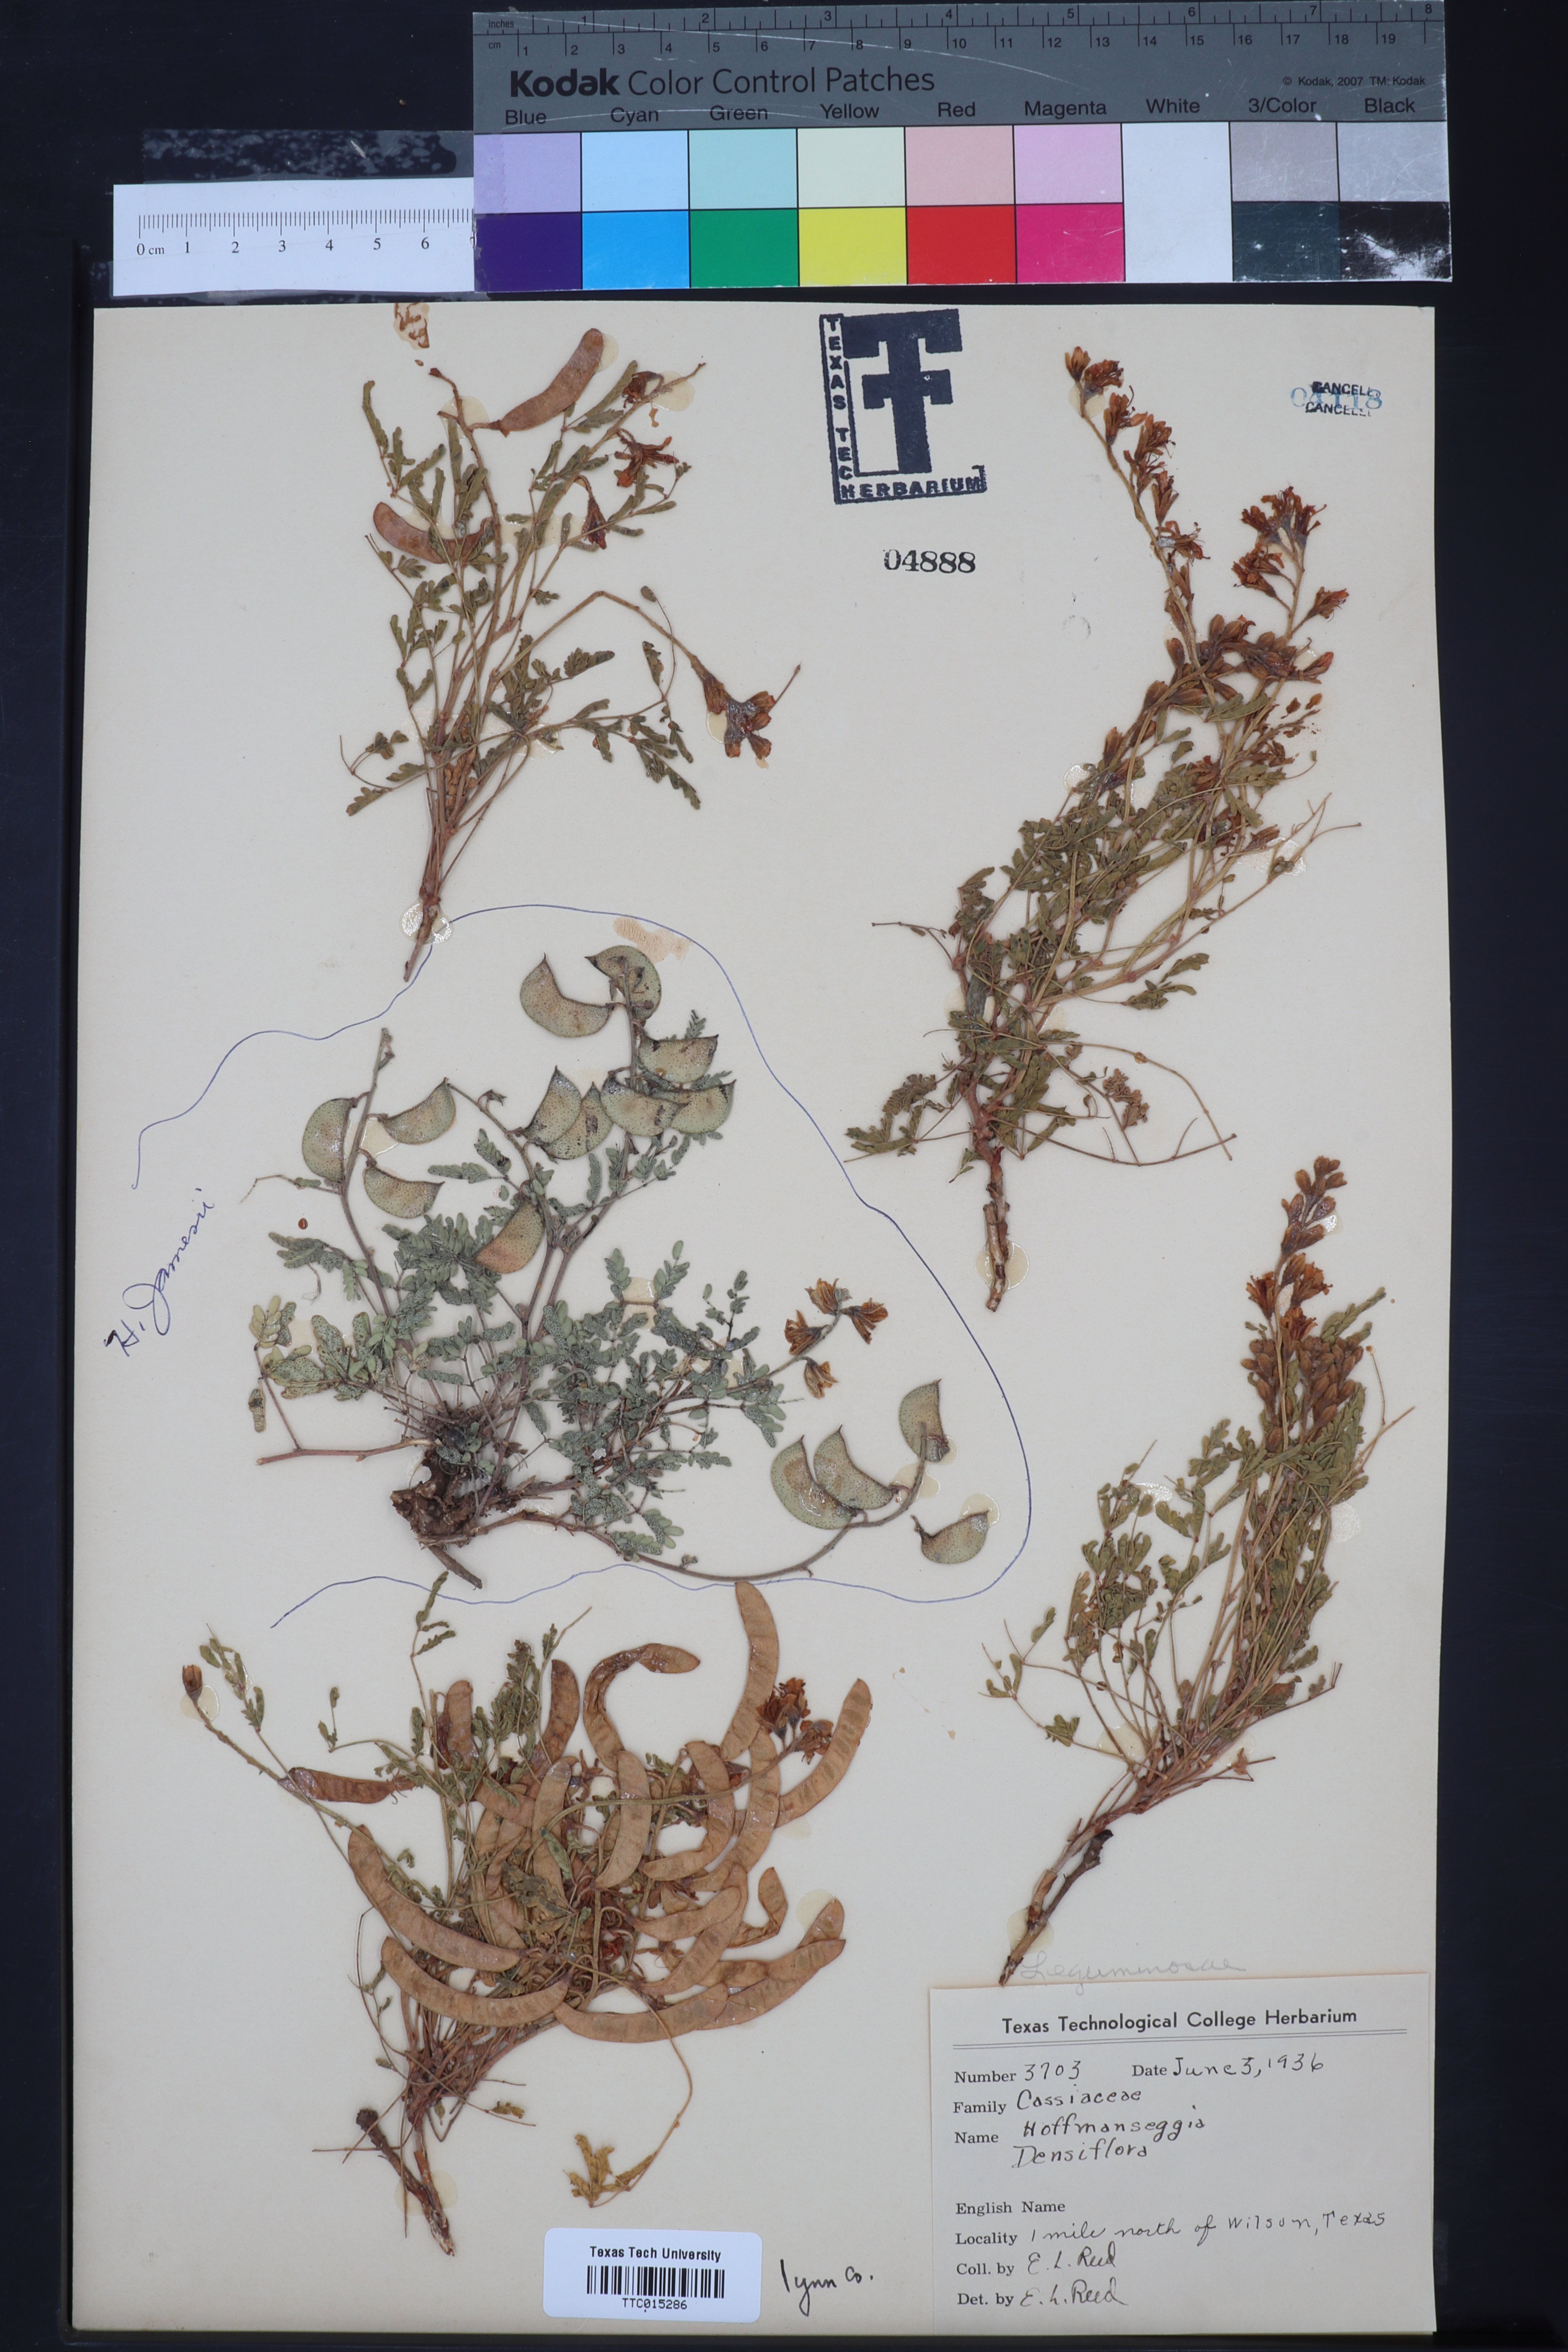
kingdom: Plantae
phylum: Tracheophyta
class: Magnoliopsida
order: Fabales
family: Fabaceae
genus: Hoffmannseggia
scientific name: Hoffmannseggia glauca
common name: Pignut
